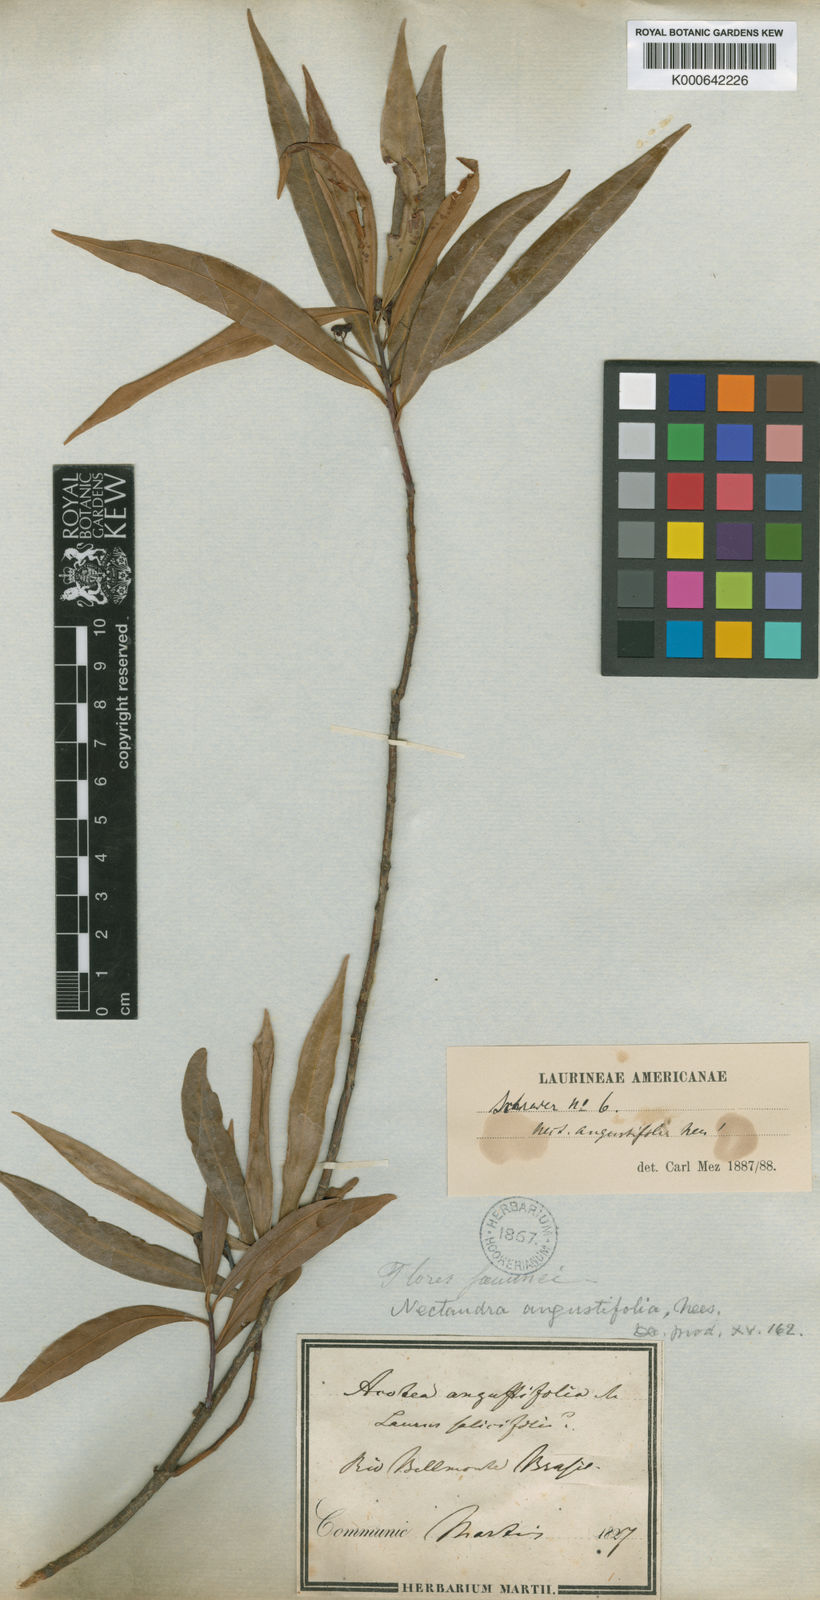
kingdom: Plantae
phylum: Tracheophyta
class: Magnoliopsida
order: Laurales
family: Lauraceae
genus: Nectandra
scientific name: Nectandra angustifolia
